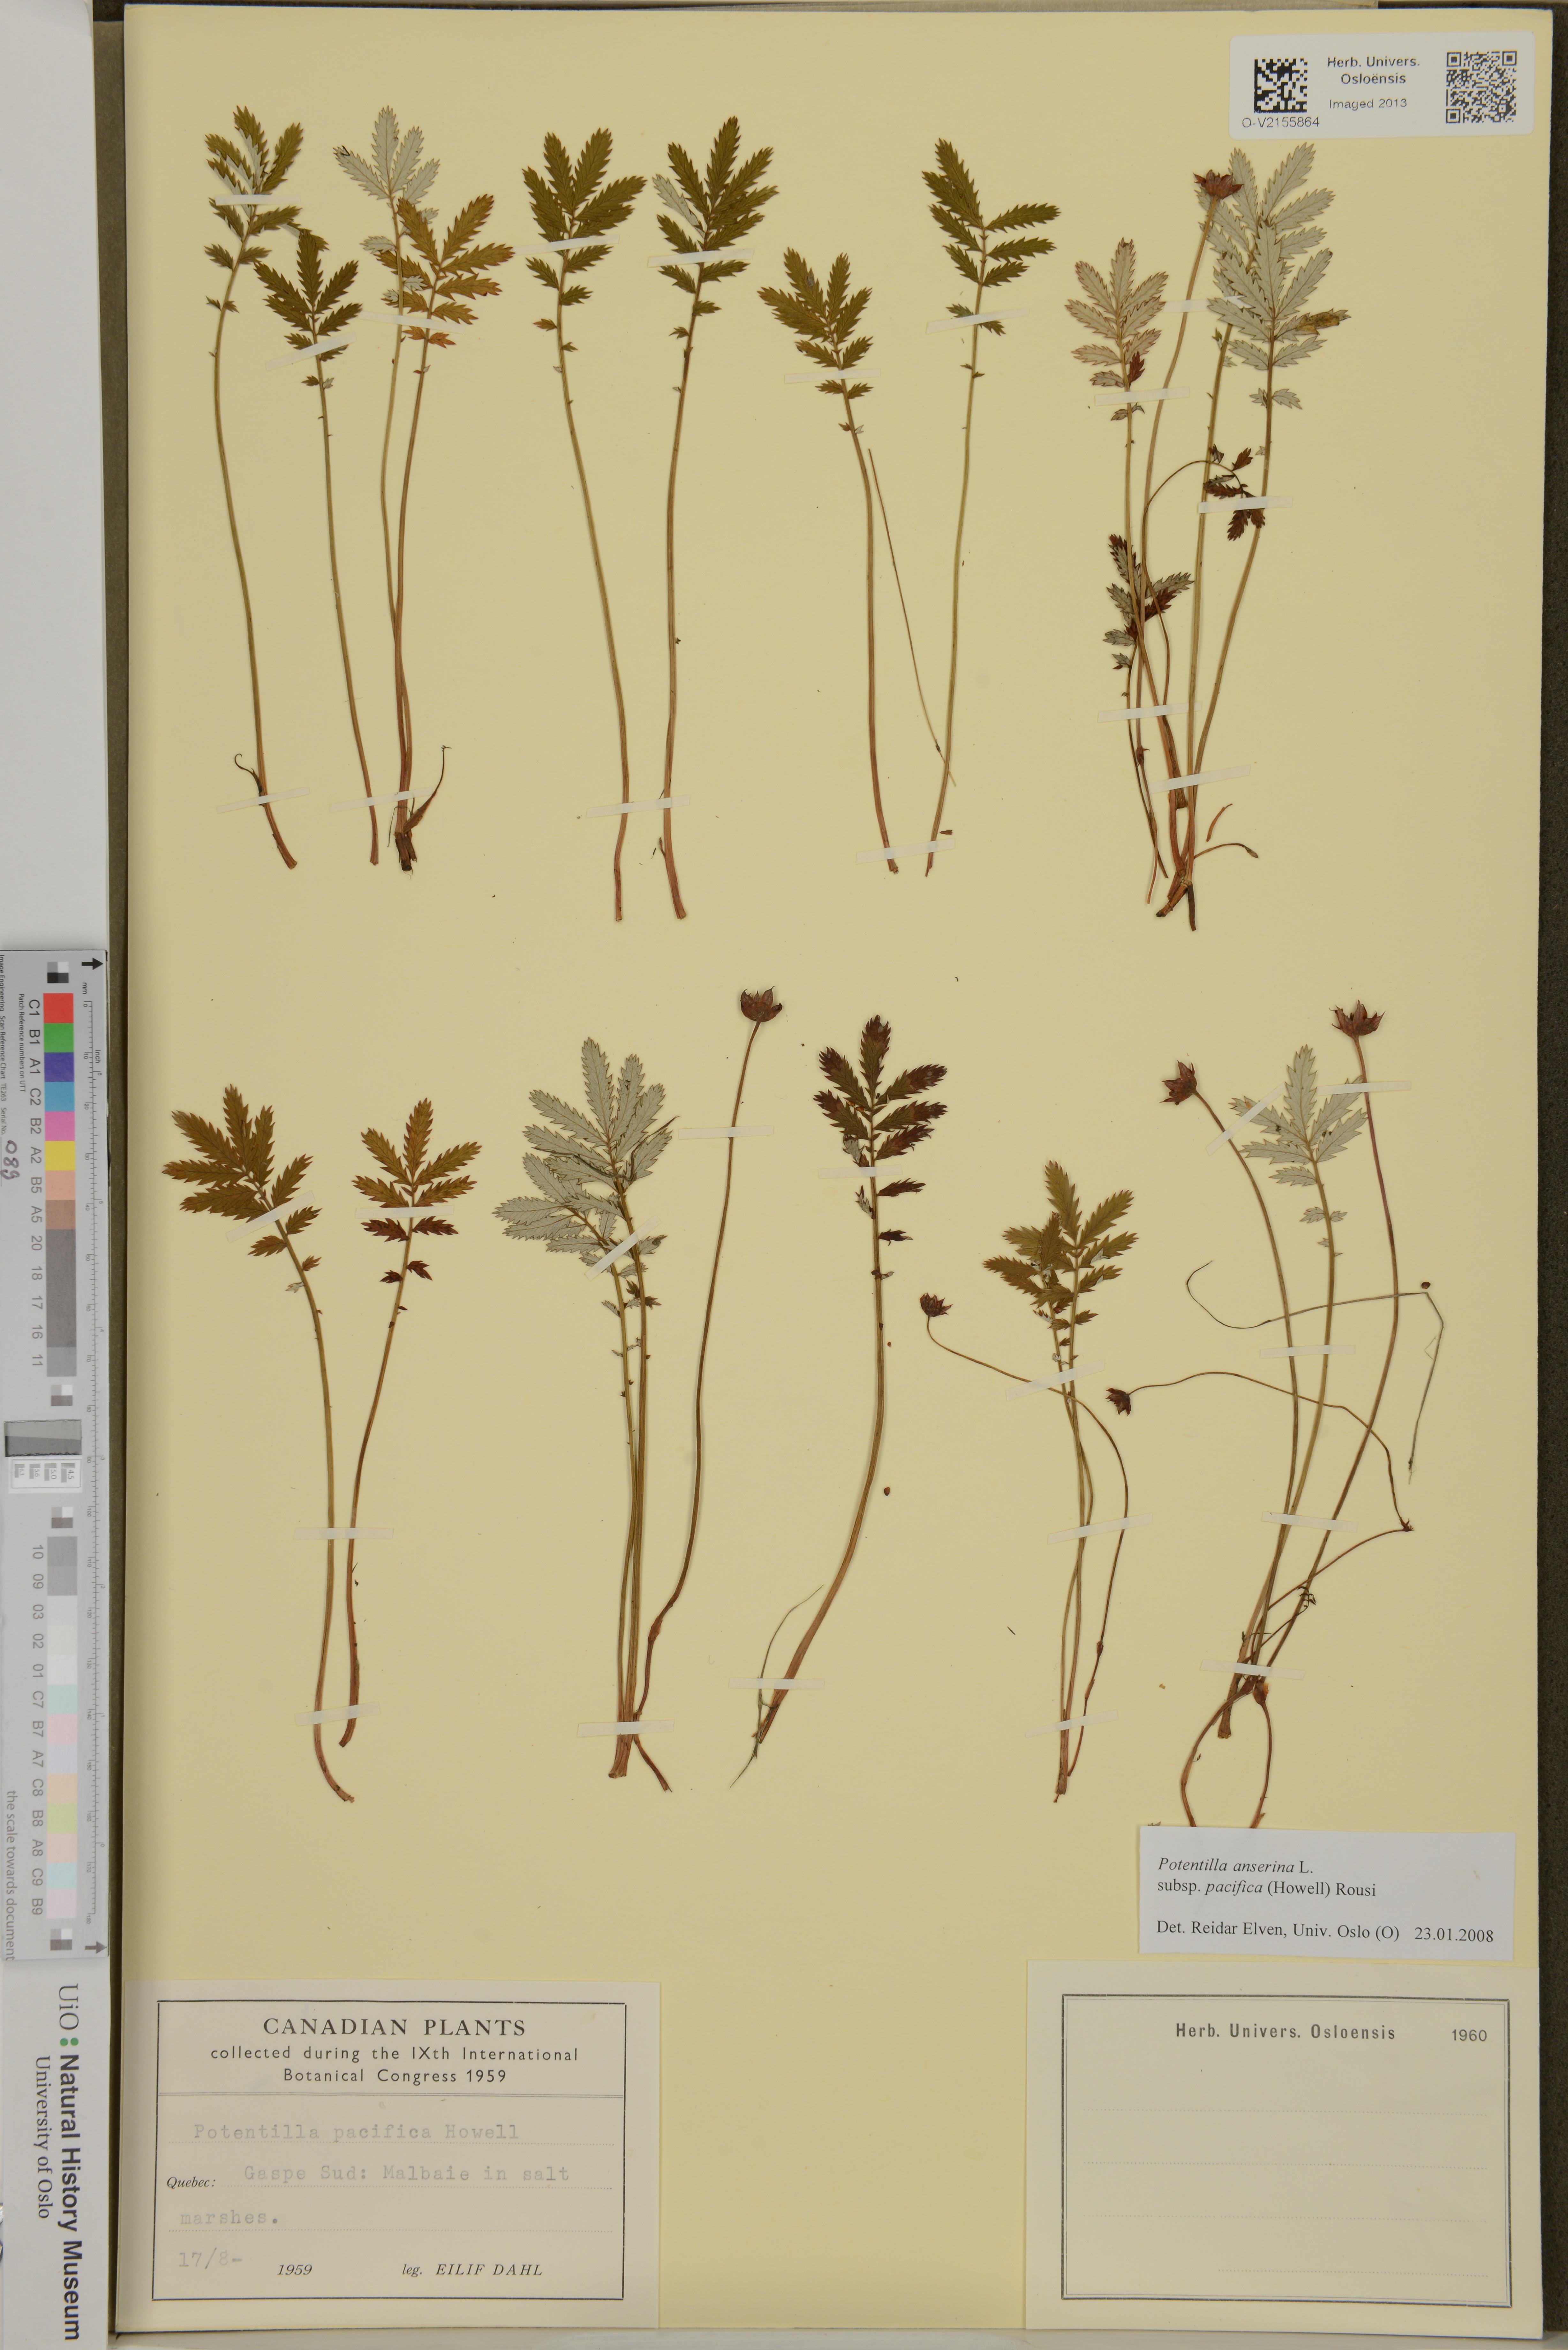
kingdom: Plantae
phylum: Tracheophyta
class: Magnoliopsida
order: Rosales
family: Rosaceae
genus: Argentina
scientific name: Argentina anserina
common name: Common silverweed
